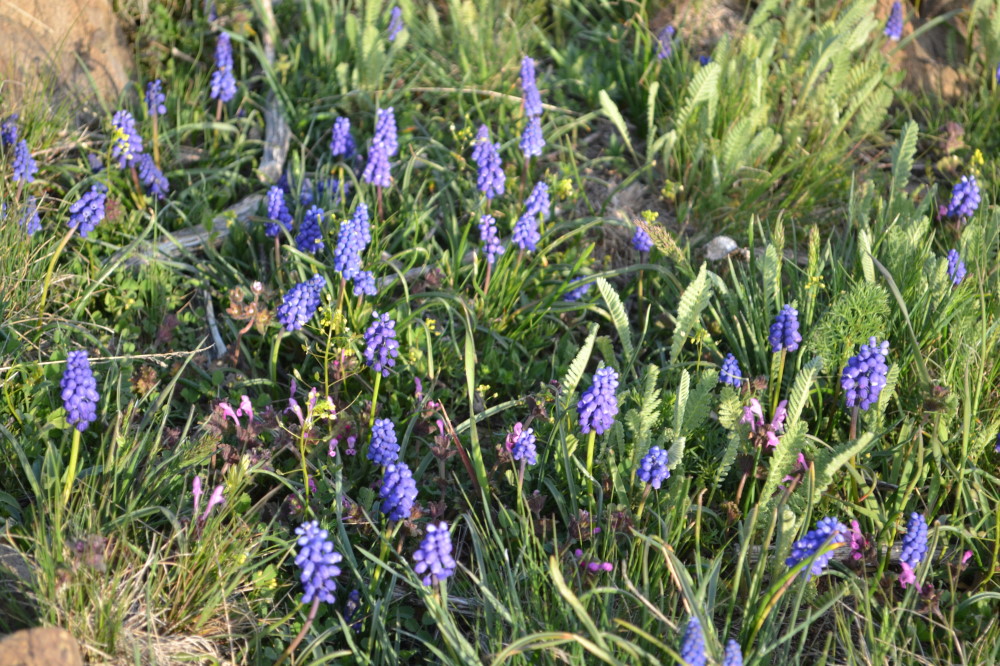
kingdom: Plantae
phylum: Tracheophyta
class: Liliopsida
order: Asparagales
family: Asparagaceae
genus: Muscari
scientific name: Muscari armeniacum
